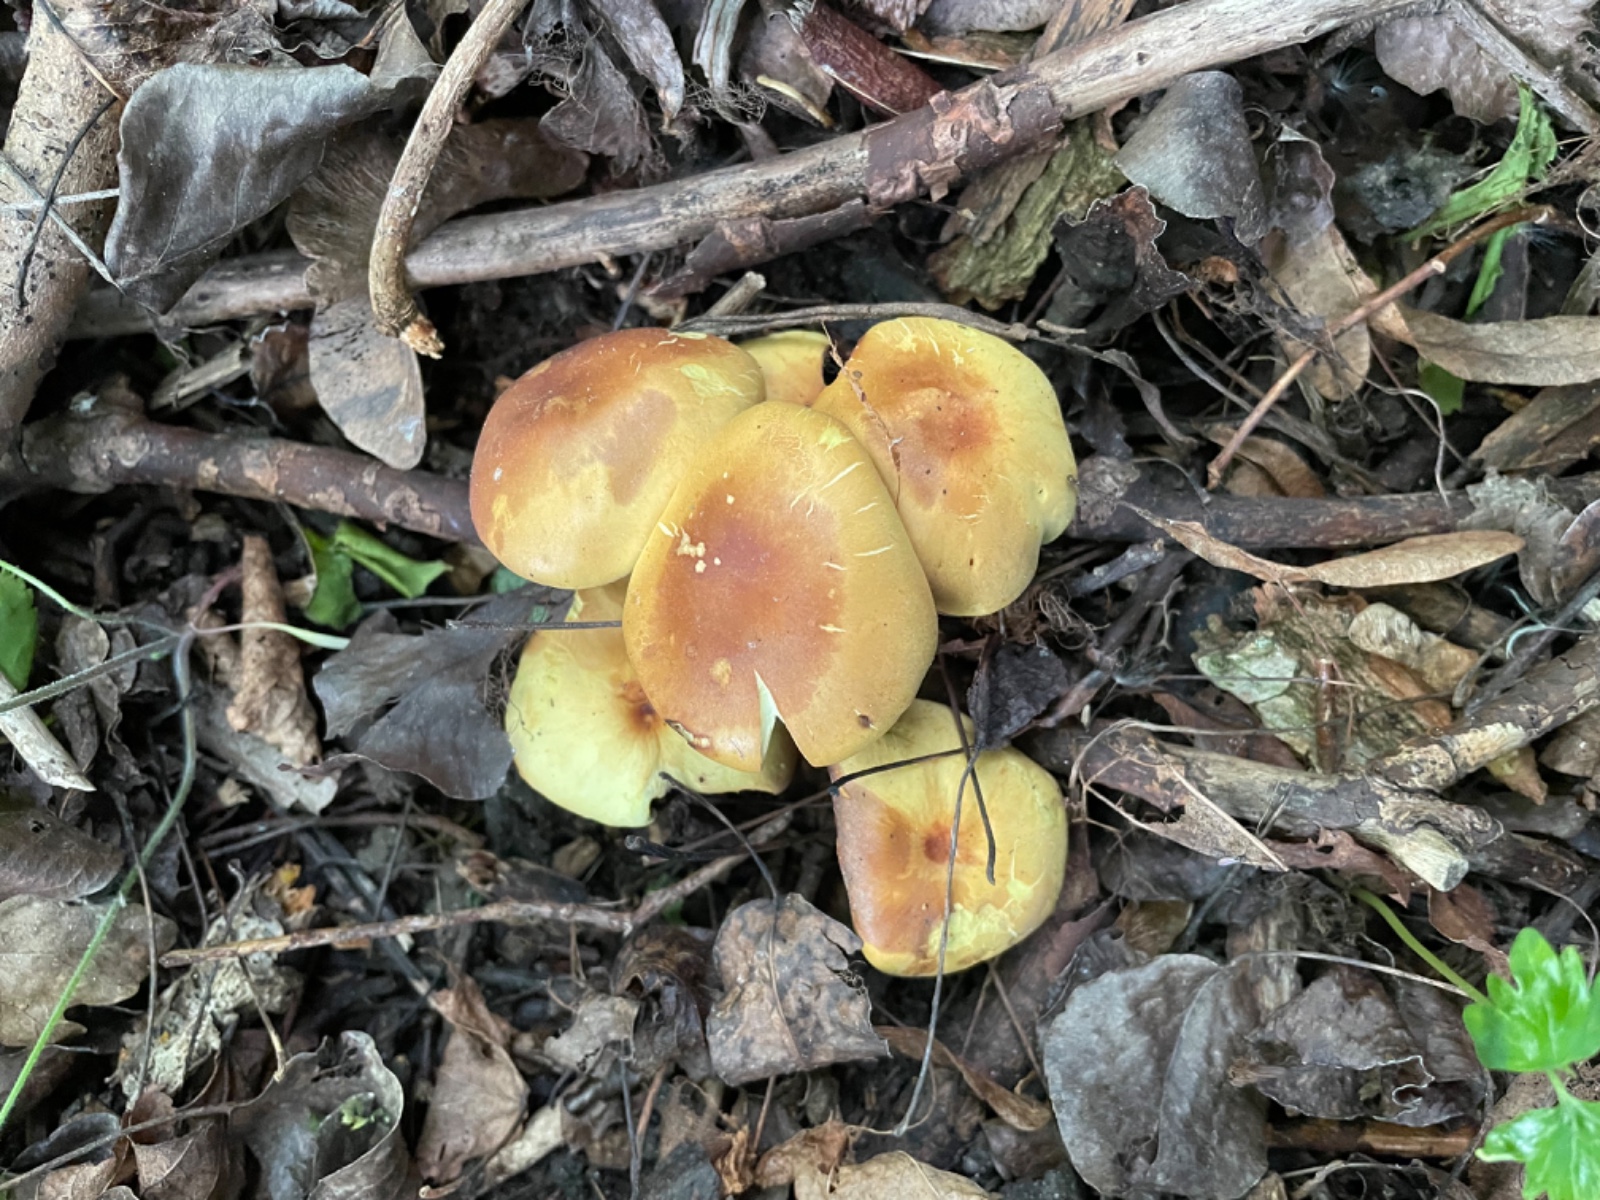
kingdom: Fungi
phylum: Basidiomycota
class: Agaricomycetes
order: Agaricales
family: Strophariaceae
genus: Hypholoma
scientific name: Hypholoma fasciculare
